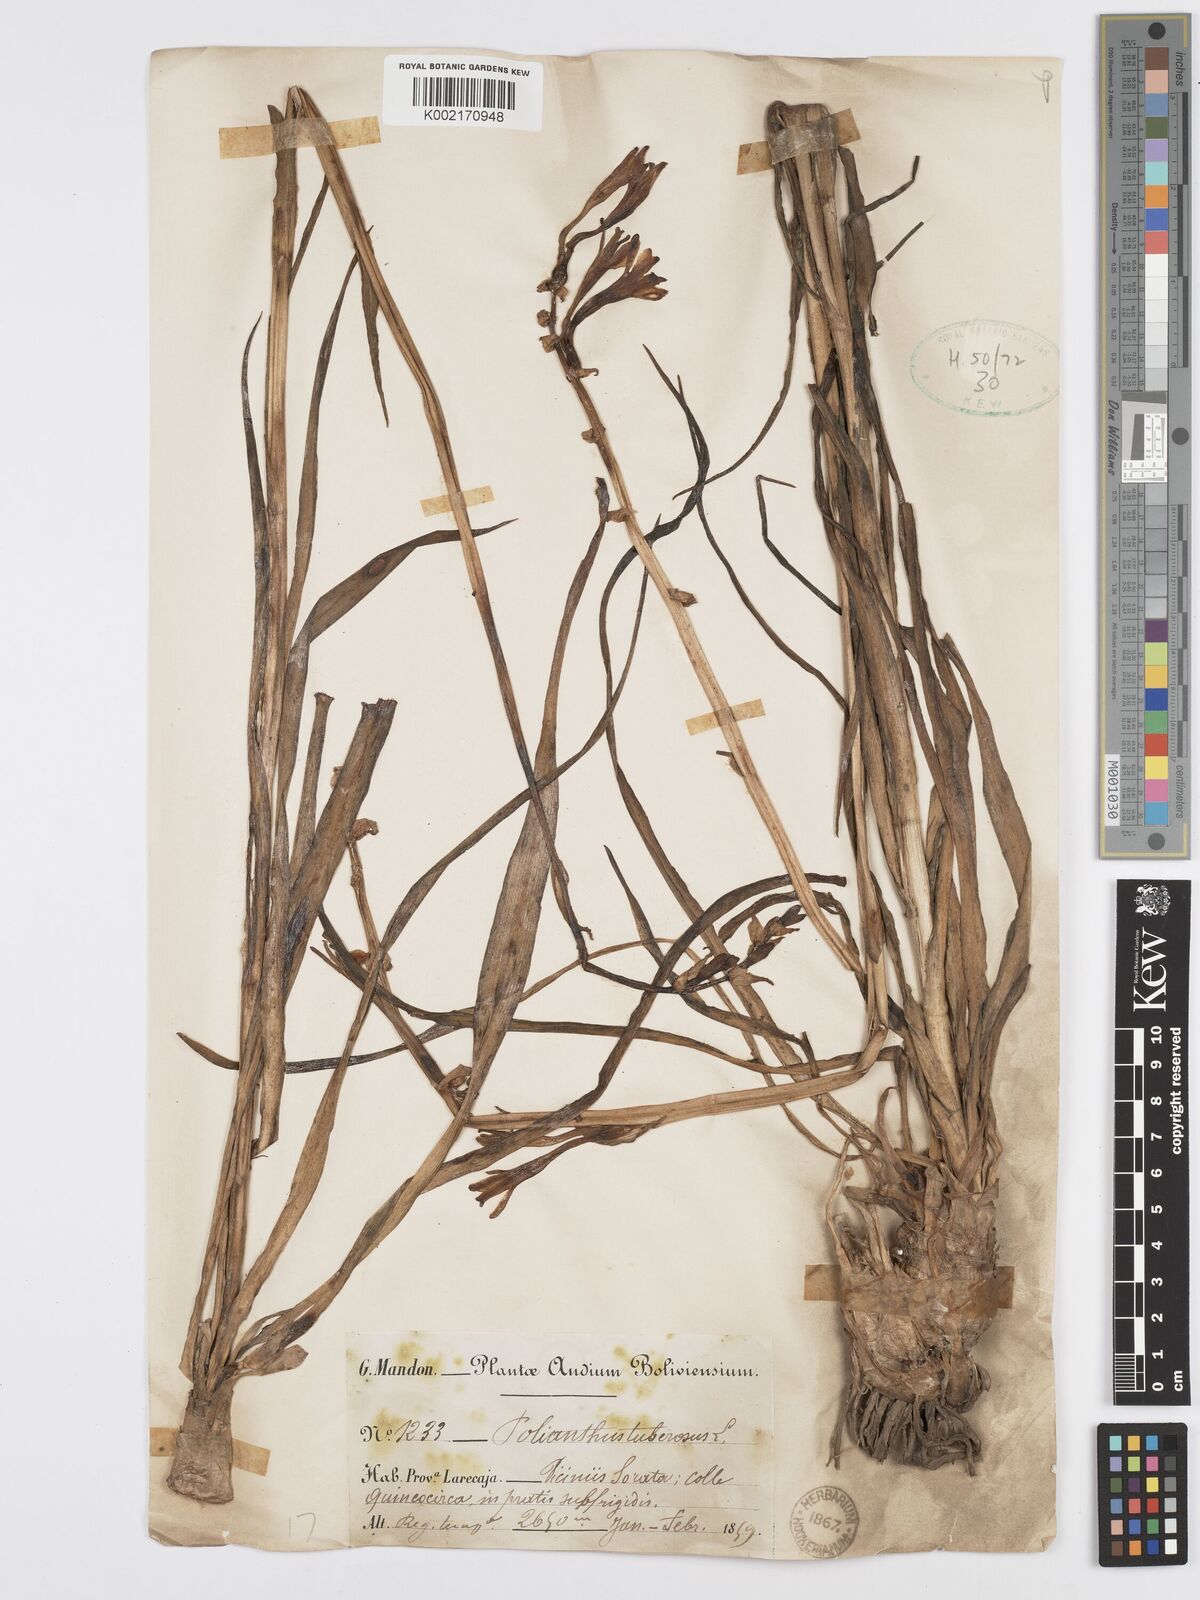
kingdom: Plantae
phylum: Tracheophyta
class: Liliopsida
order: Asparagales
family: Asparagaceae
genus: Agave
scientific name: Agave amica
